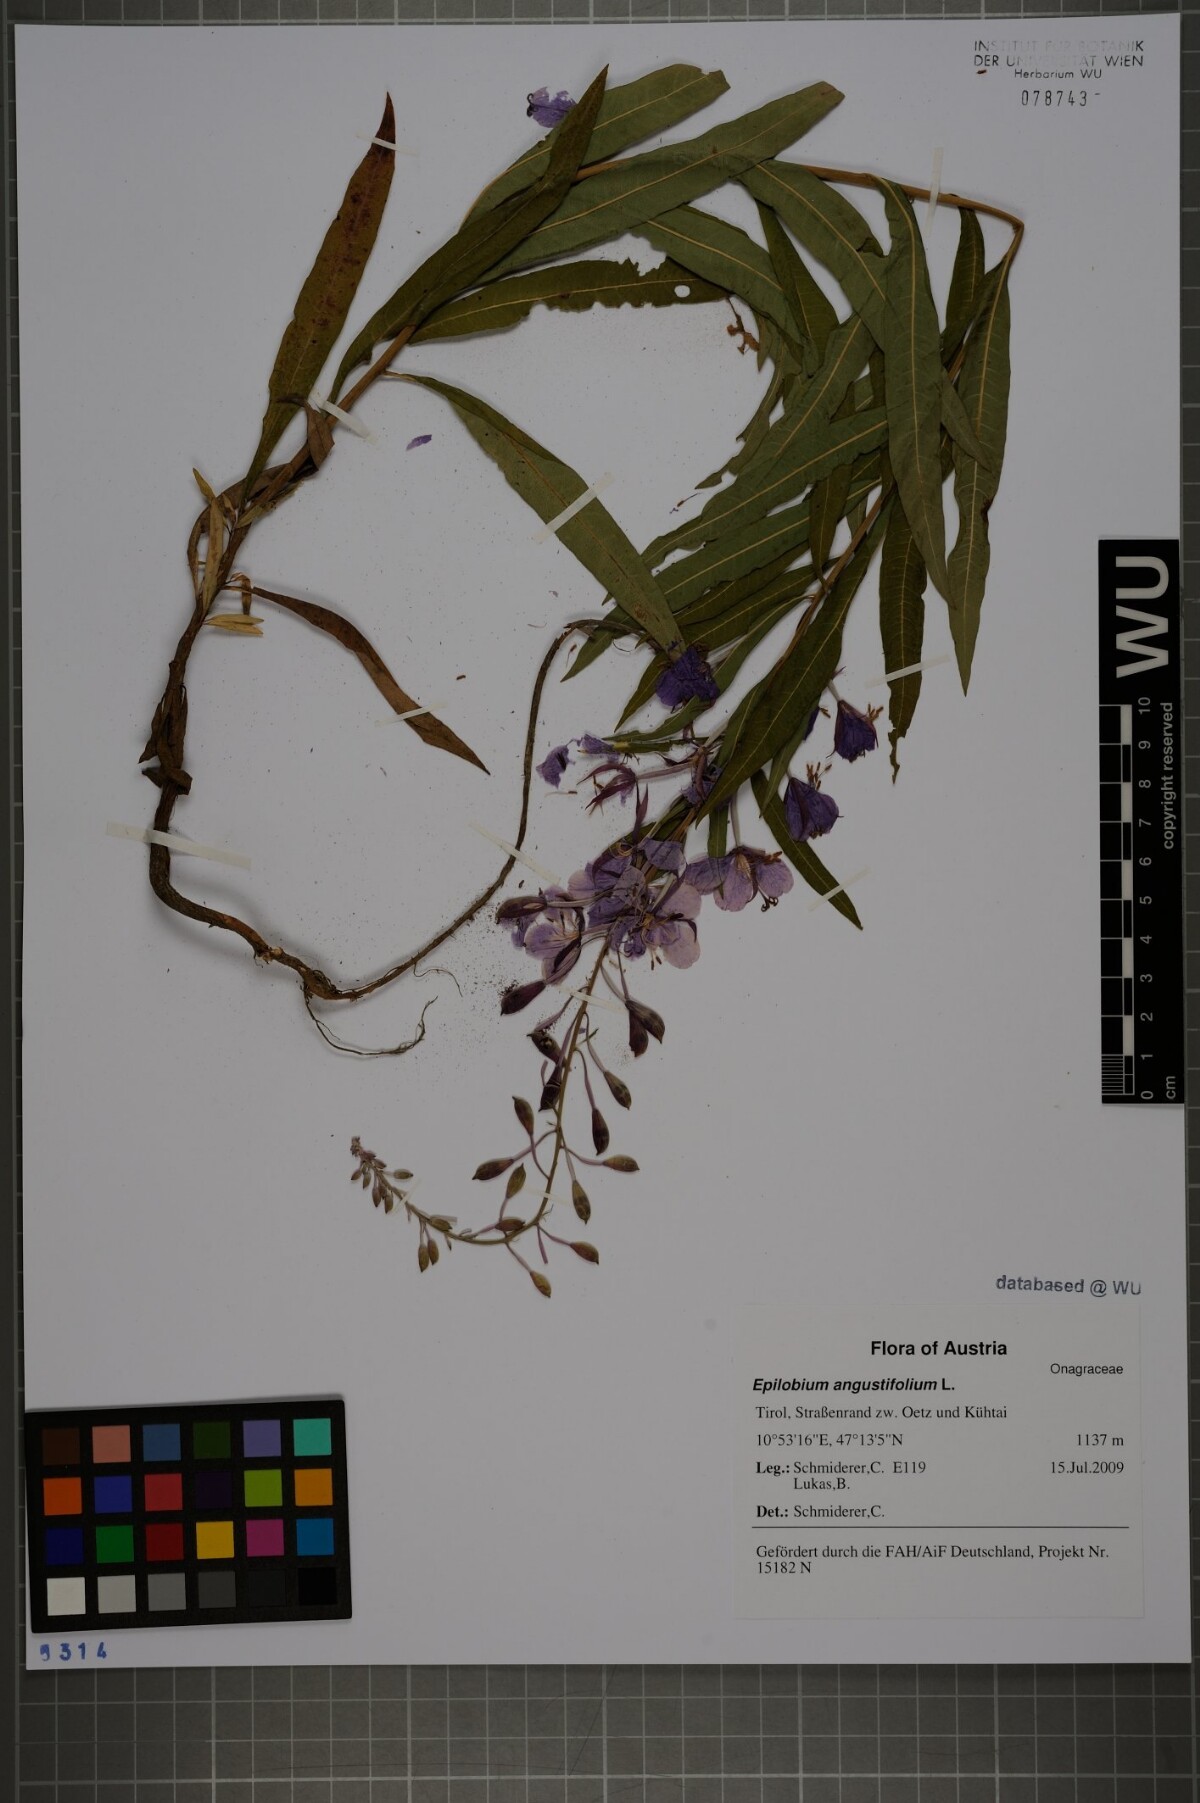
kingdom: Plantae
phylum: Tracheophyta
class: Magnoliopsida
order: Myrtales
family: Onagraceae
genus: Chamaenerion
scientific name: Chamaenerion angustifolium
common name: Fireweed
